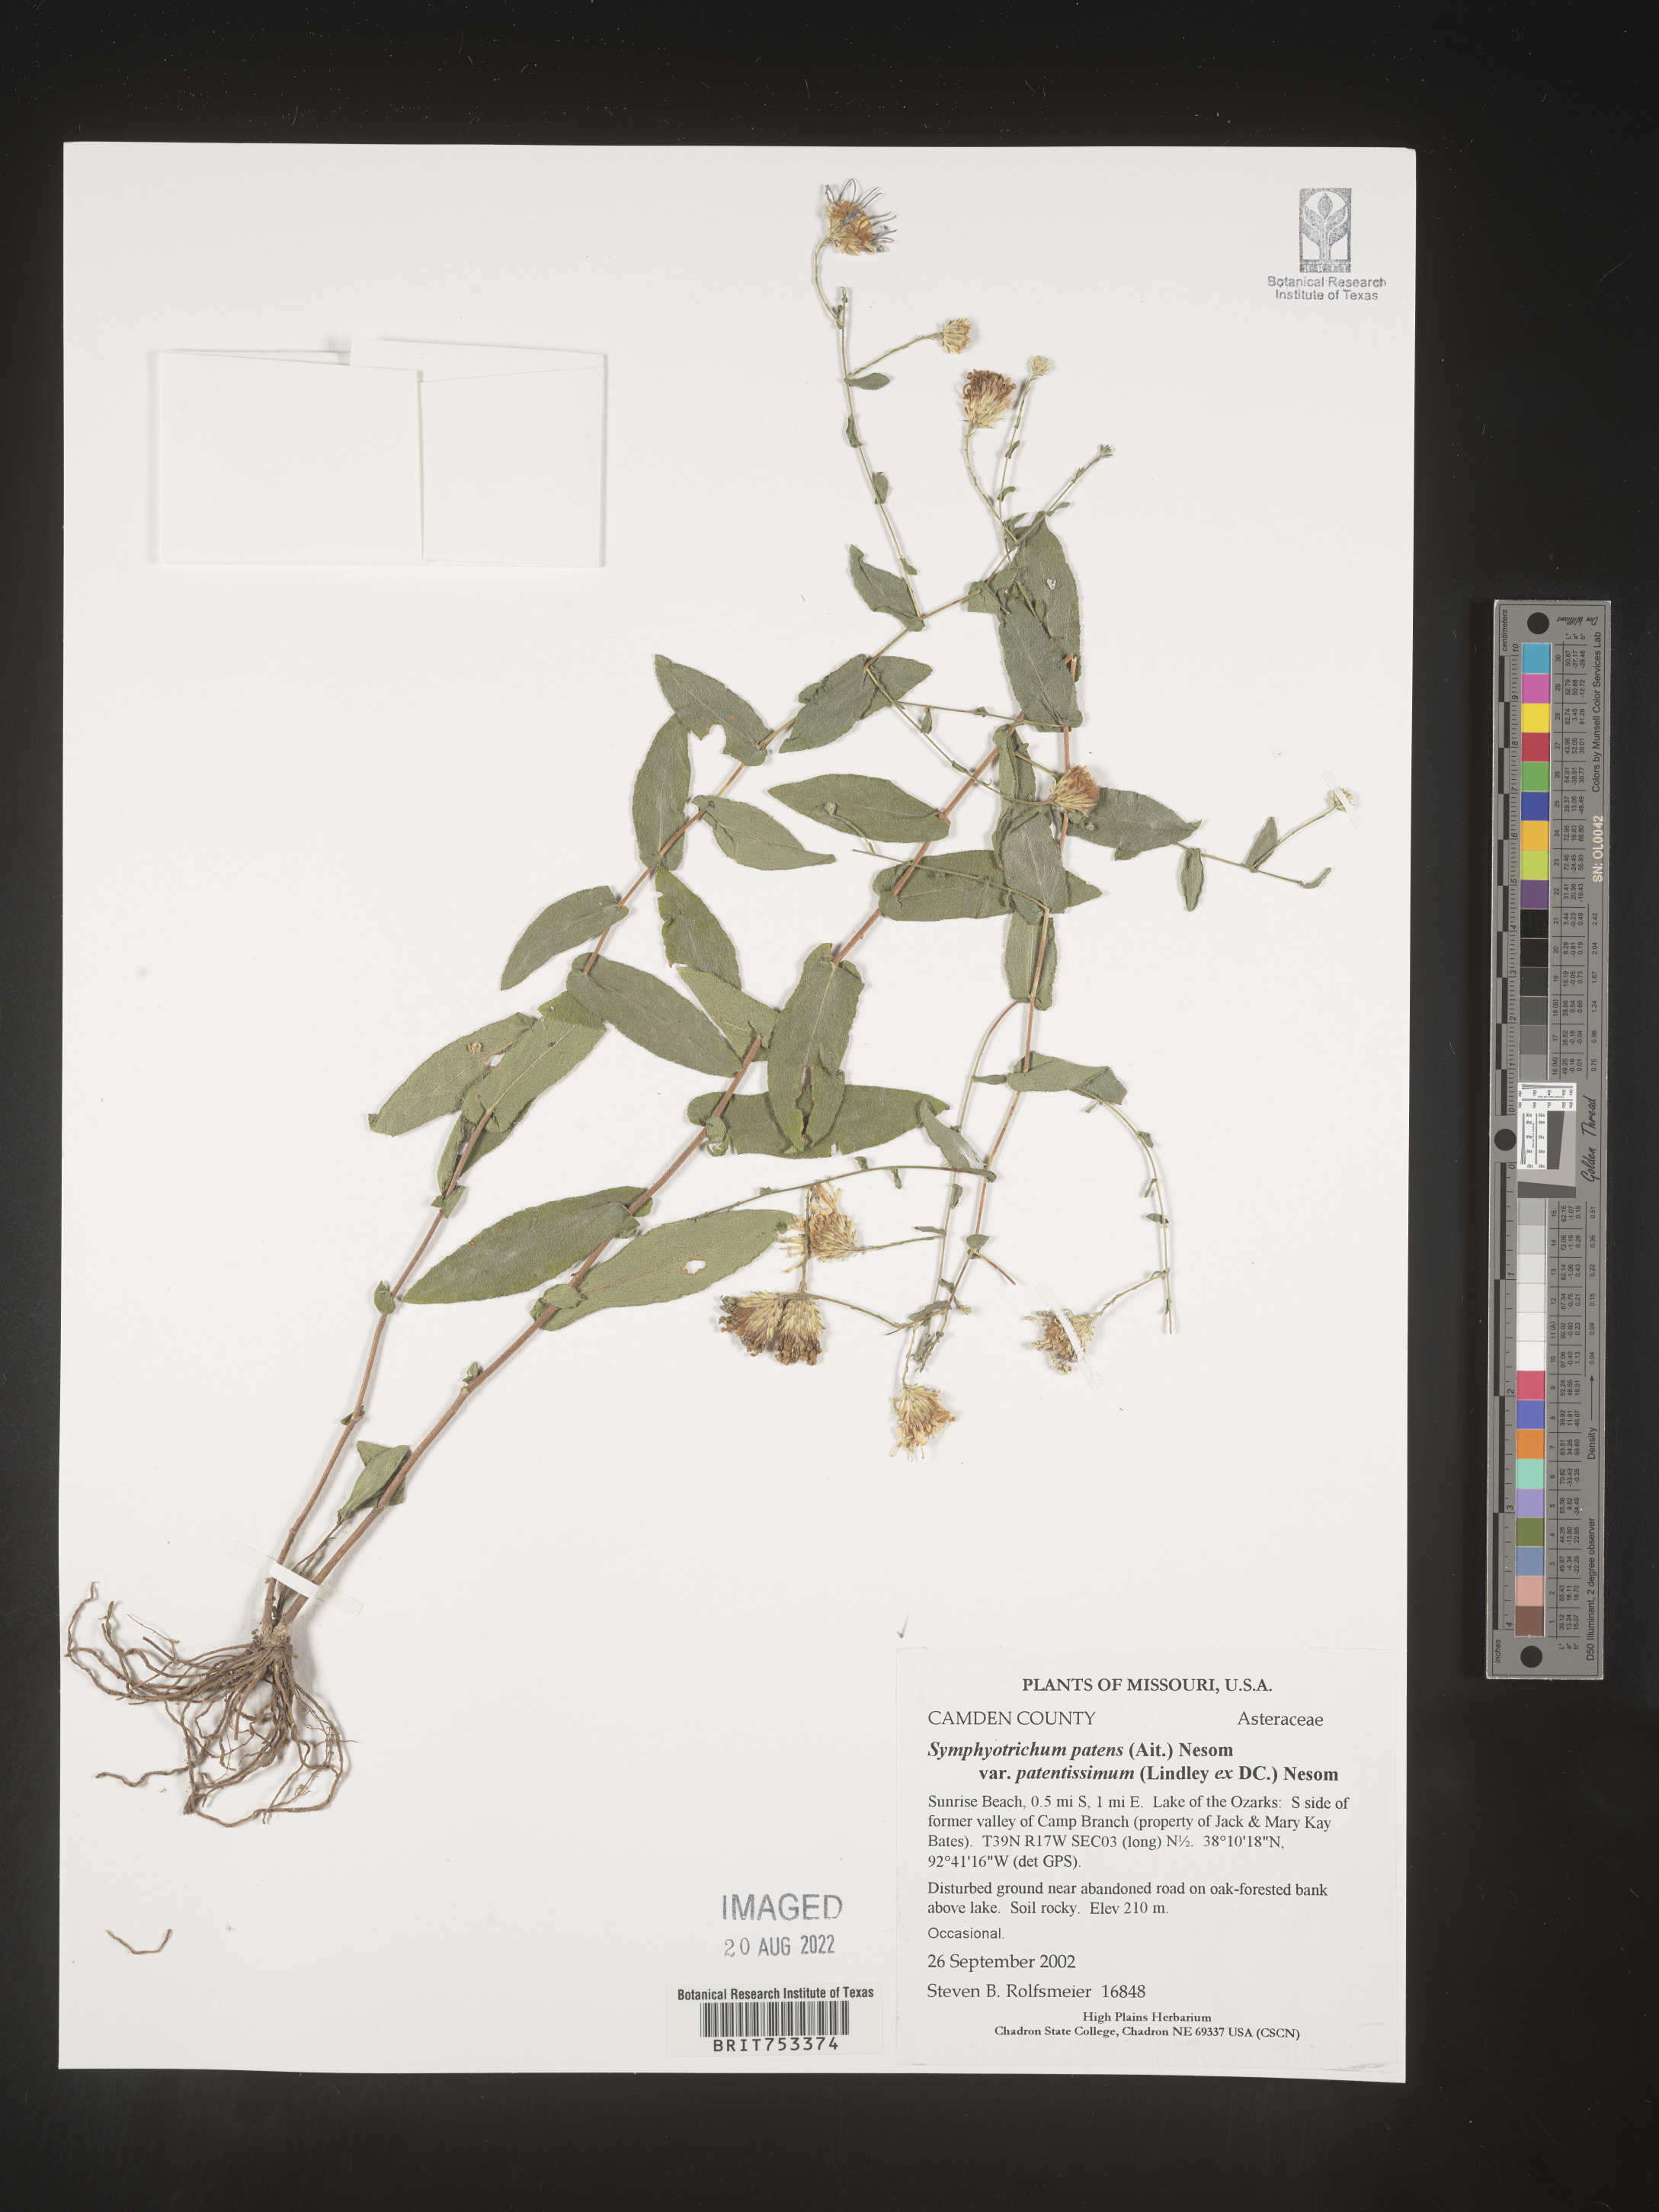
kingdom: Plantae
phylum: Tracheophyta
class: Magnoliopsida
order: Asterales
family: Asteraceae
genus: Symphyotrichum
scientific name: Symphyotrichum patens
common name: Late purple aster
